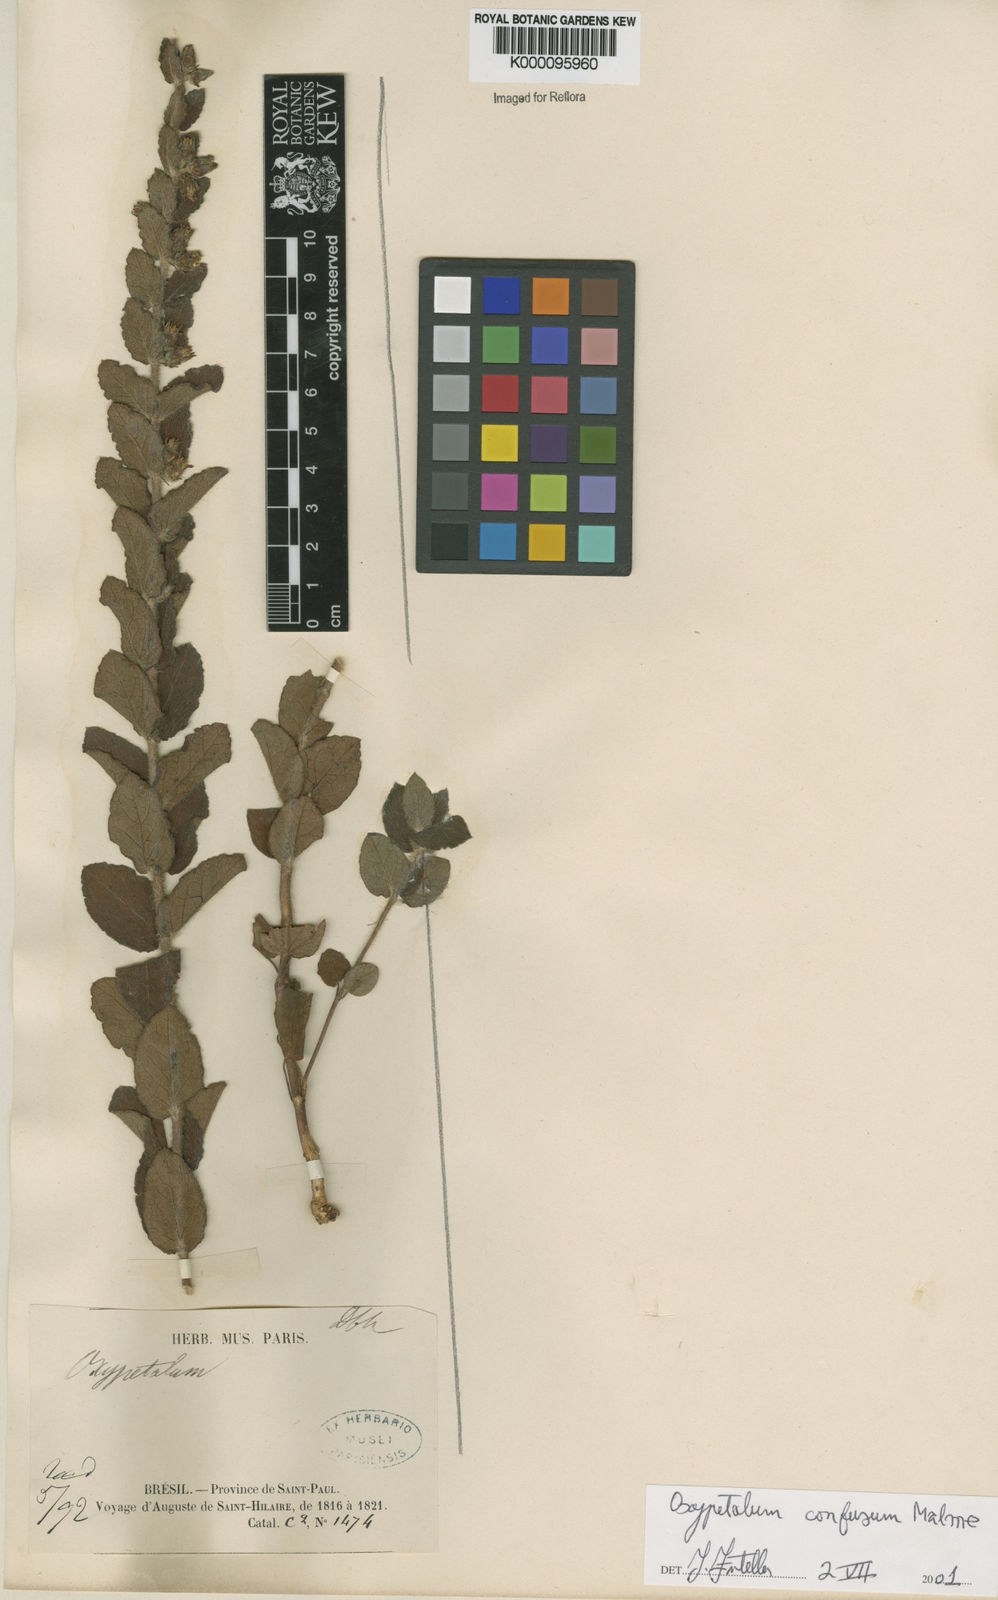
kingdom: Plantae
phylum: Tracheophyta
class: Magnoliopsida
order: Gentianales
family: Apocynaceae
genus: Oxypetalum
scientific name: Oxypetalum confusum
